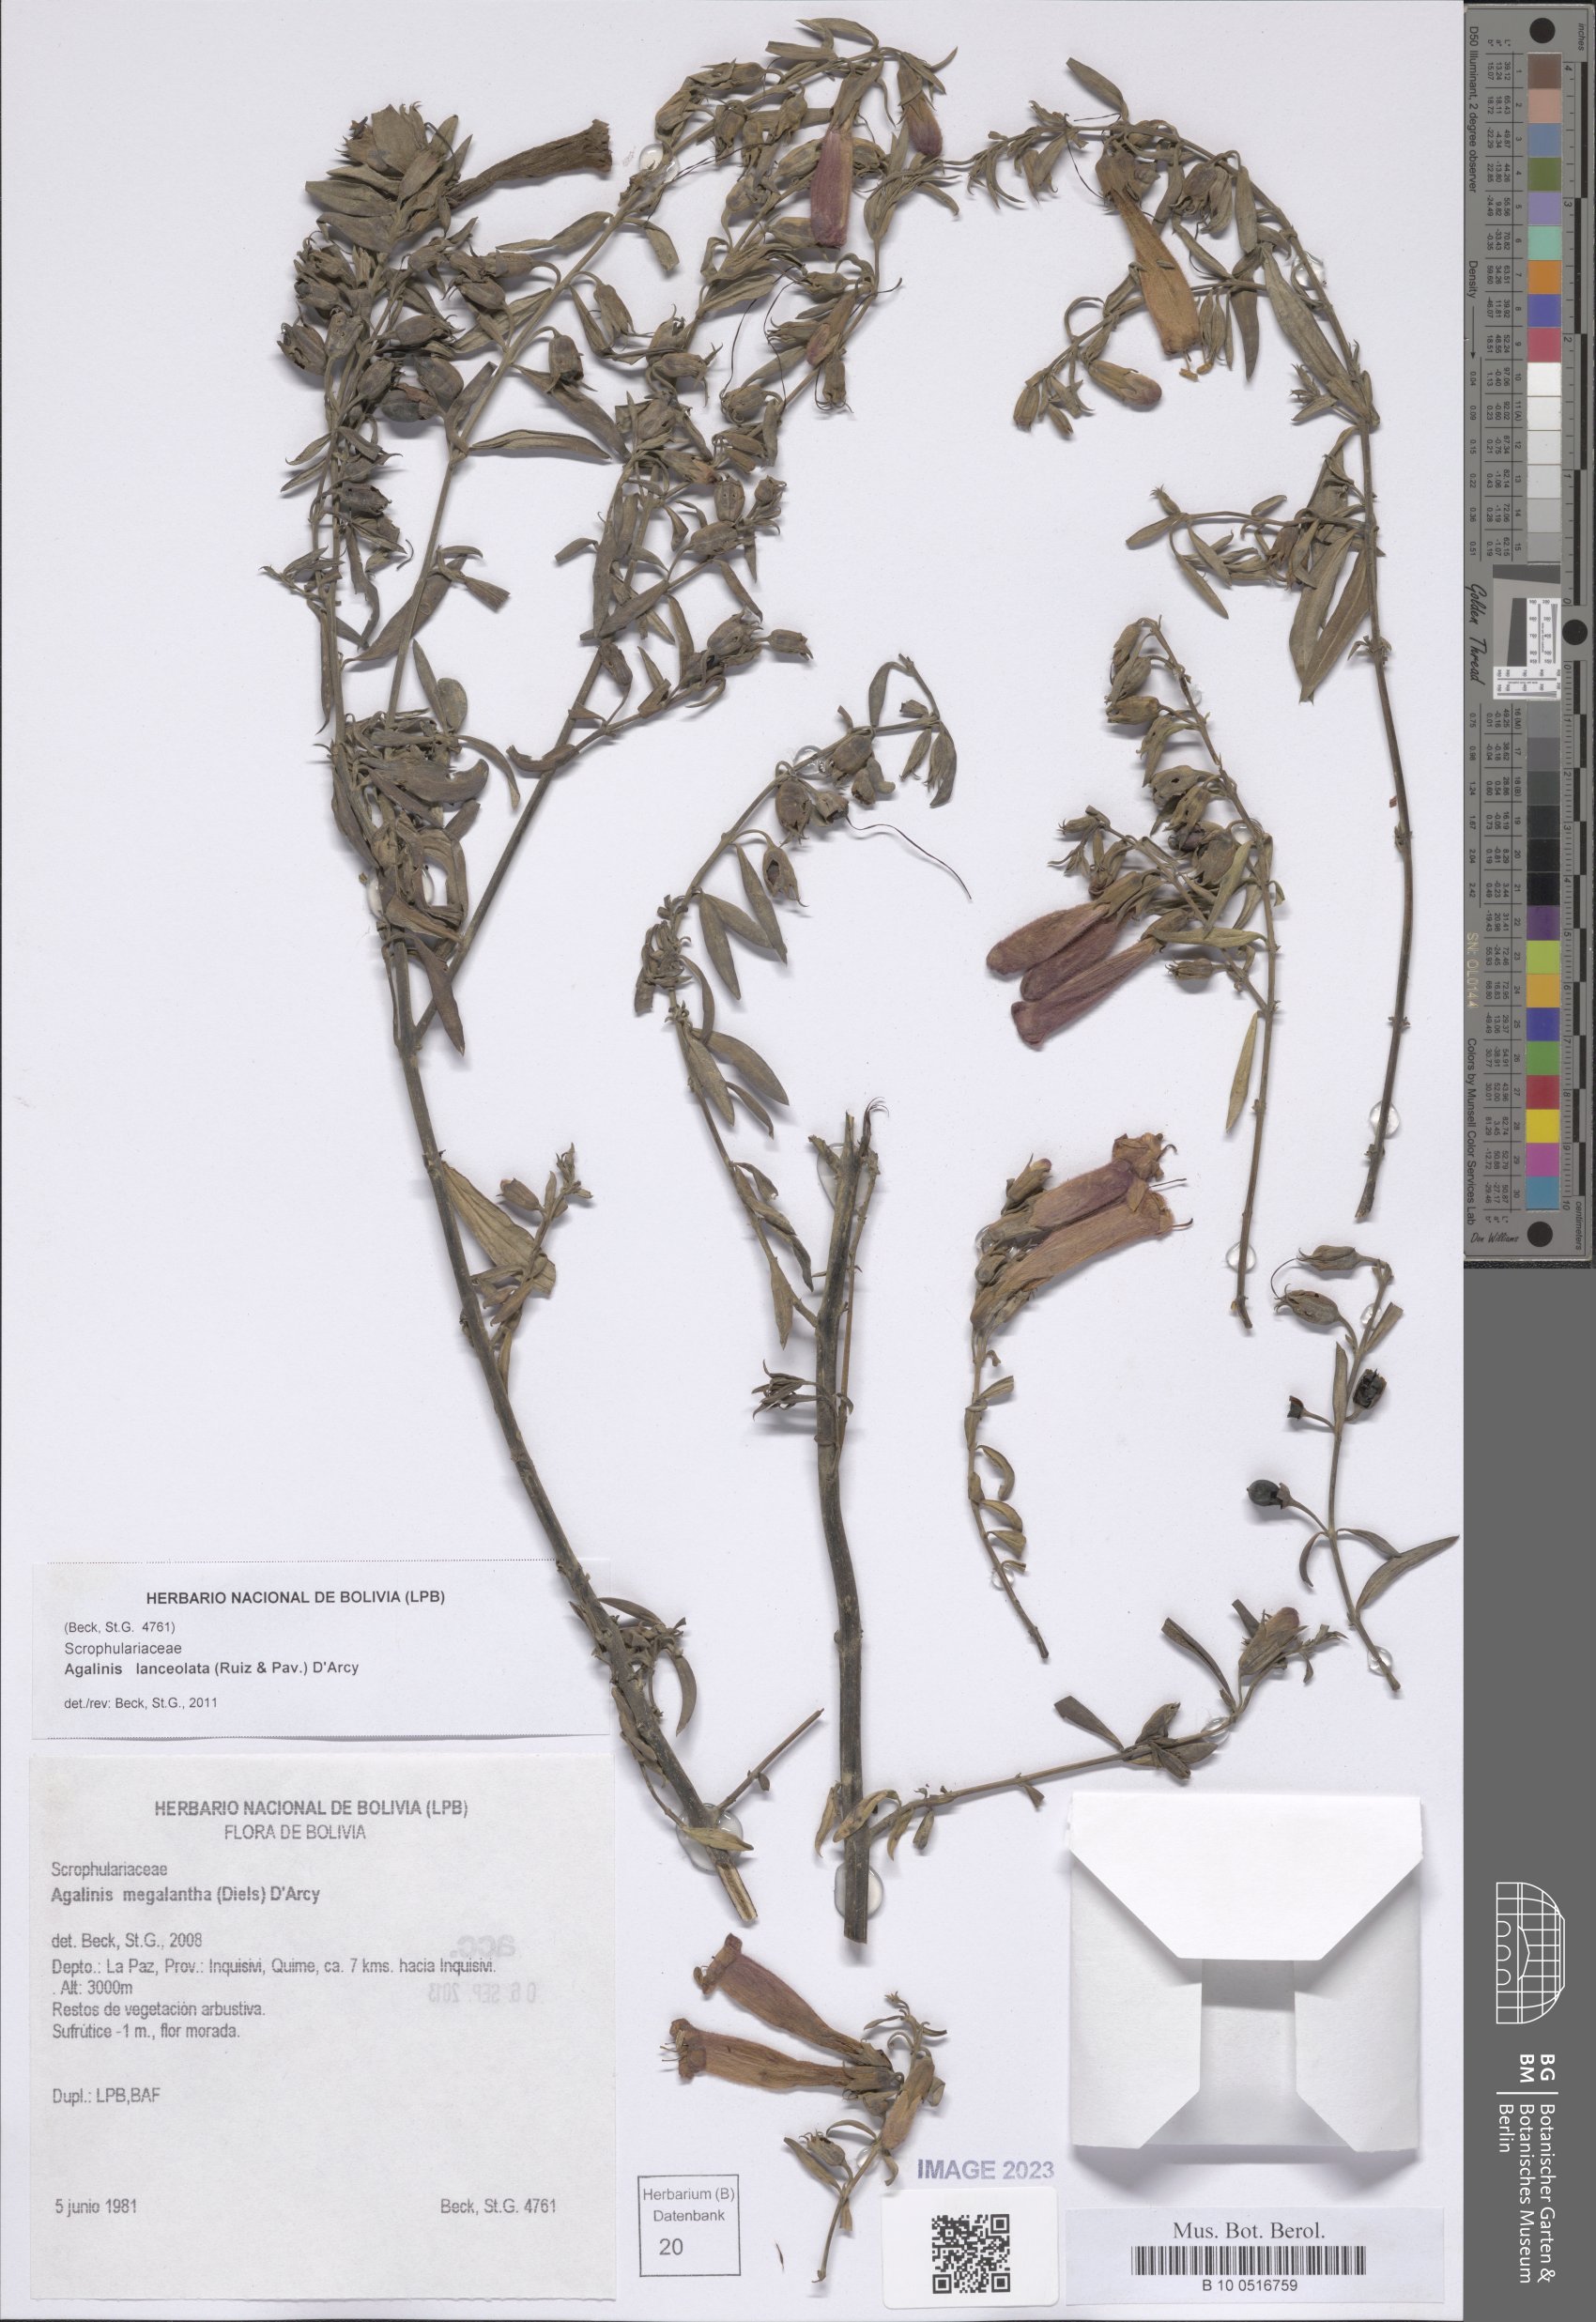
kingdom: Plantae
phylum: Tracheophyta
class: Magnoliopsida
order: Lamiales
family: Orobanchaceae
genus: Agalinis
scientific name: Agalinis lanceolata
